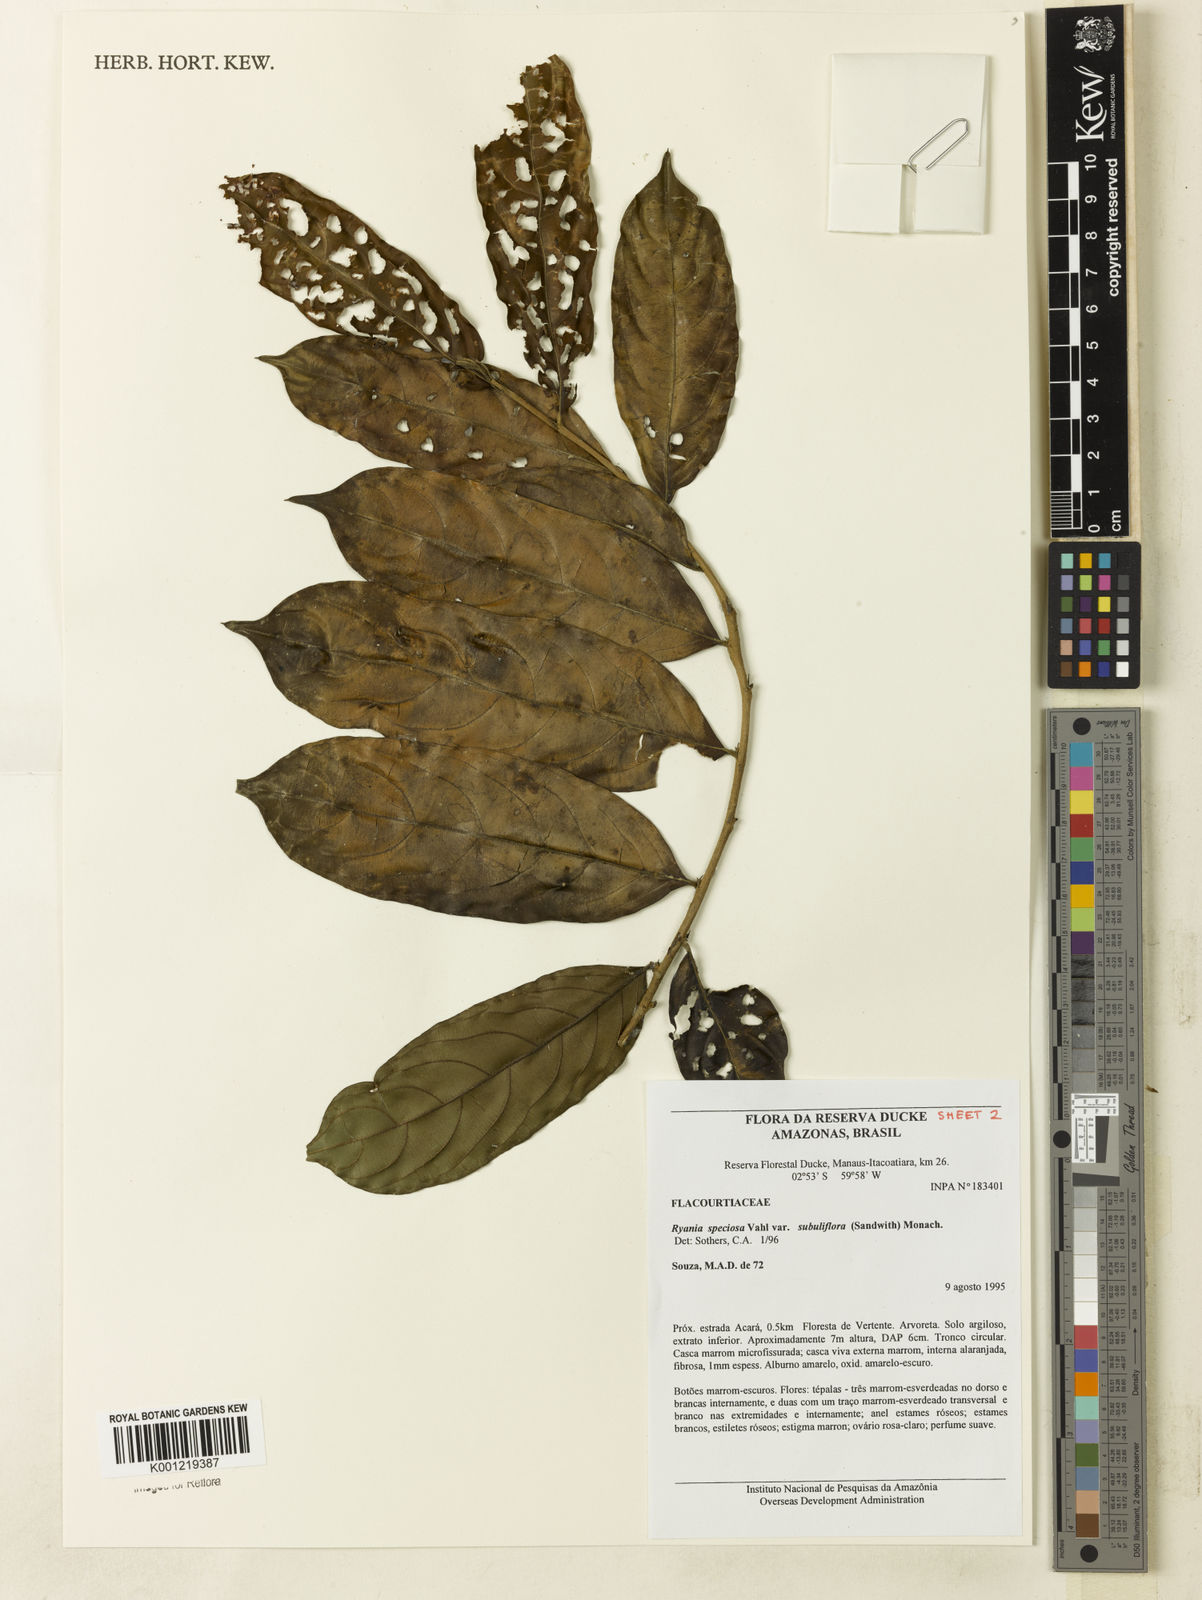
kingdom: Plantae
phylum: Tracheophyta
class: Magnoliopsida
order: Malpighiales
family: Salicaceae
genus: Ryania
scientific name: Ryania speciosa
